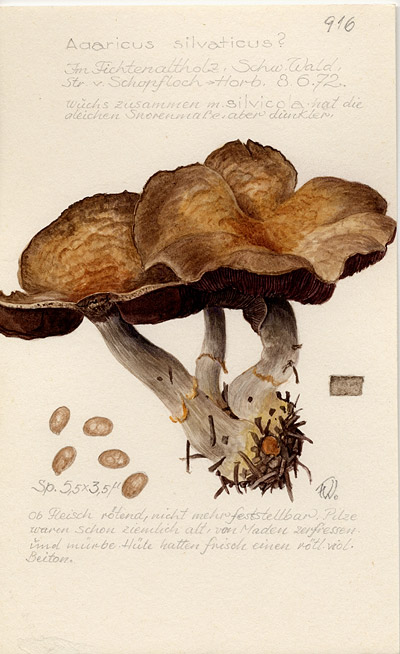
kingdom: Fungi
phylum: Basidiomycota
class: Agaricomycetes
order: Agaricales
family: Agaricaceae
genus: Agaricus
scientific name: Agaricus sylvaticus
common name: Blushing wood mushroom
